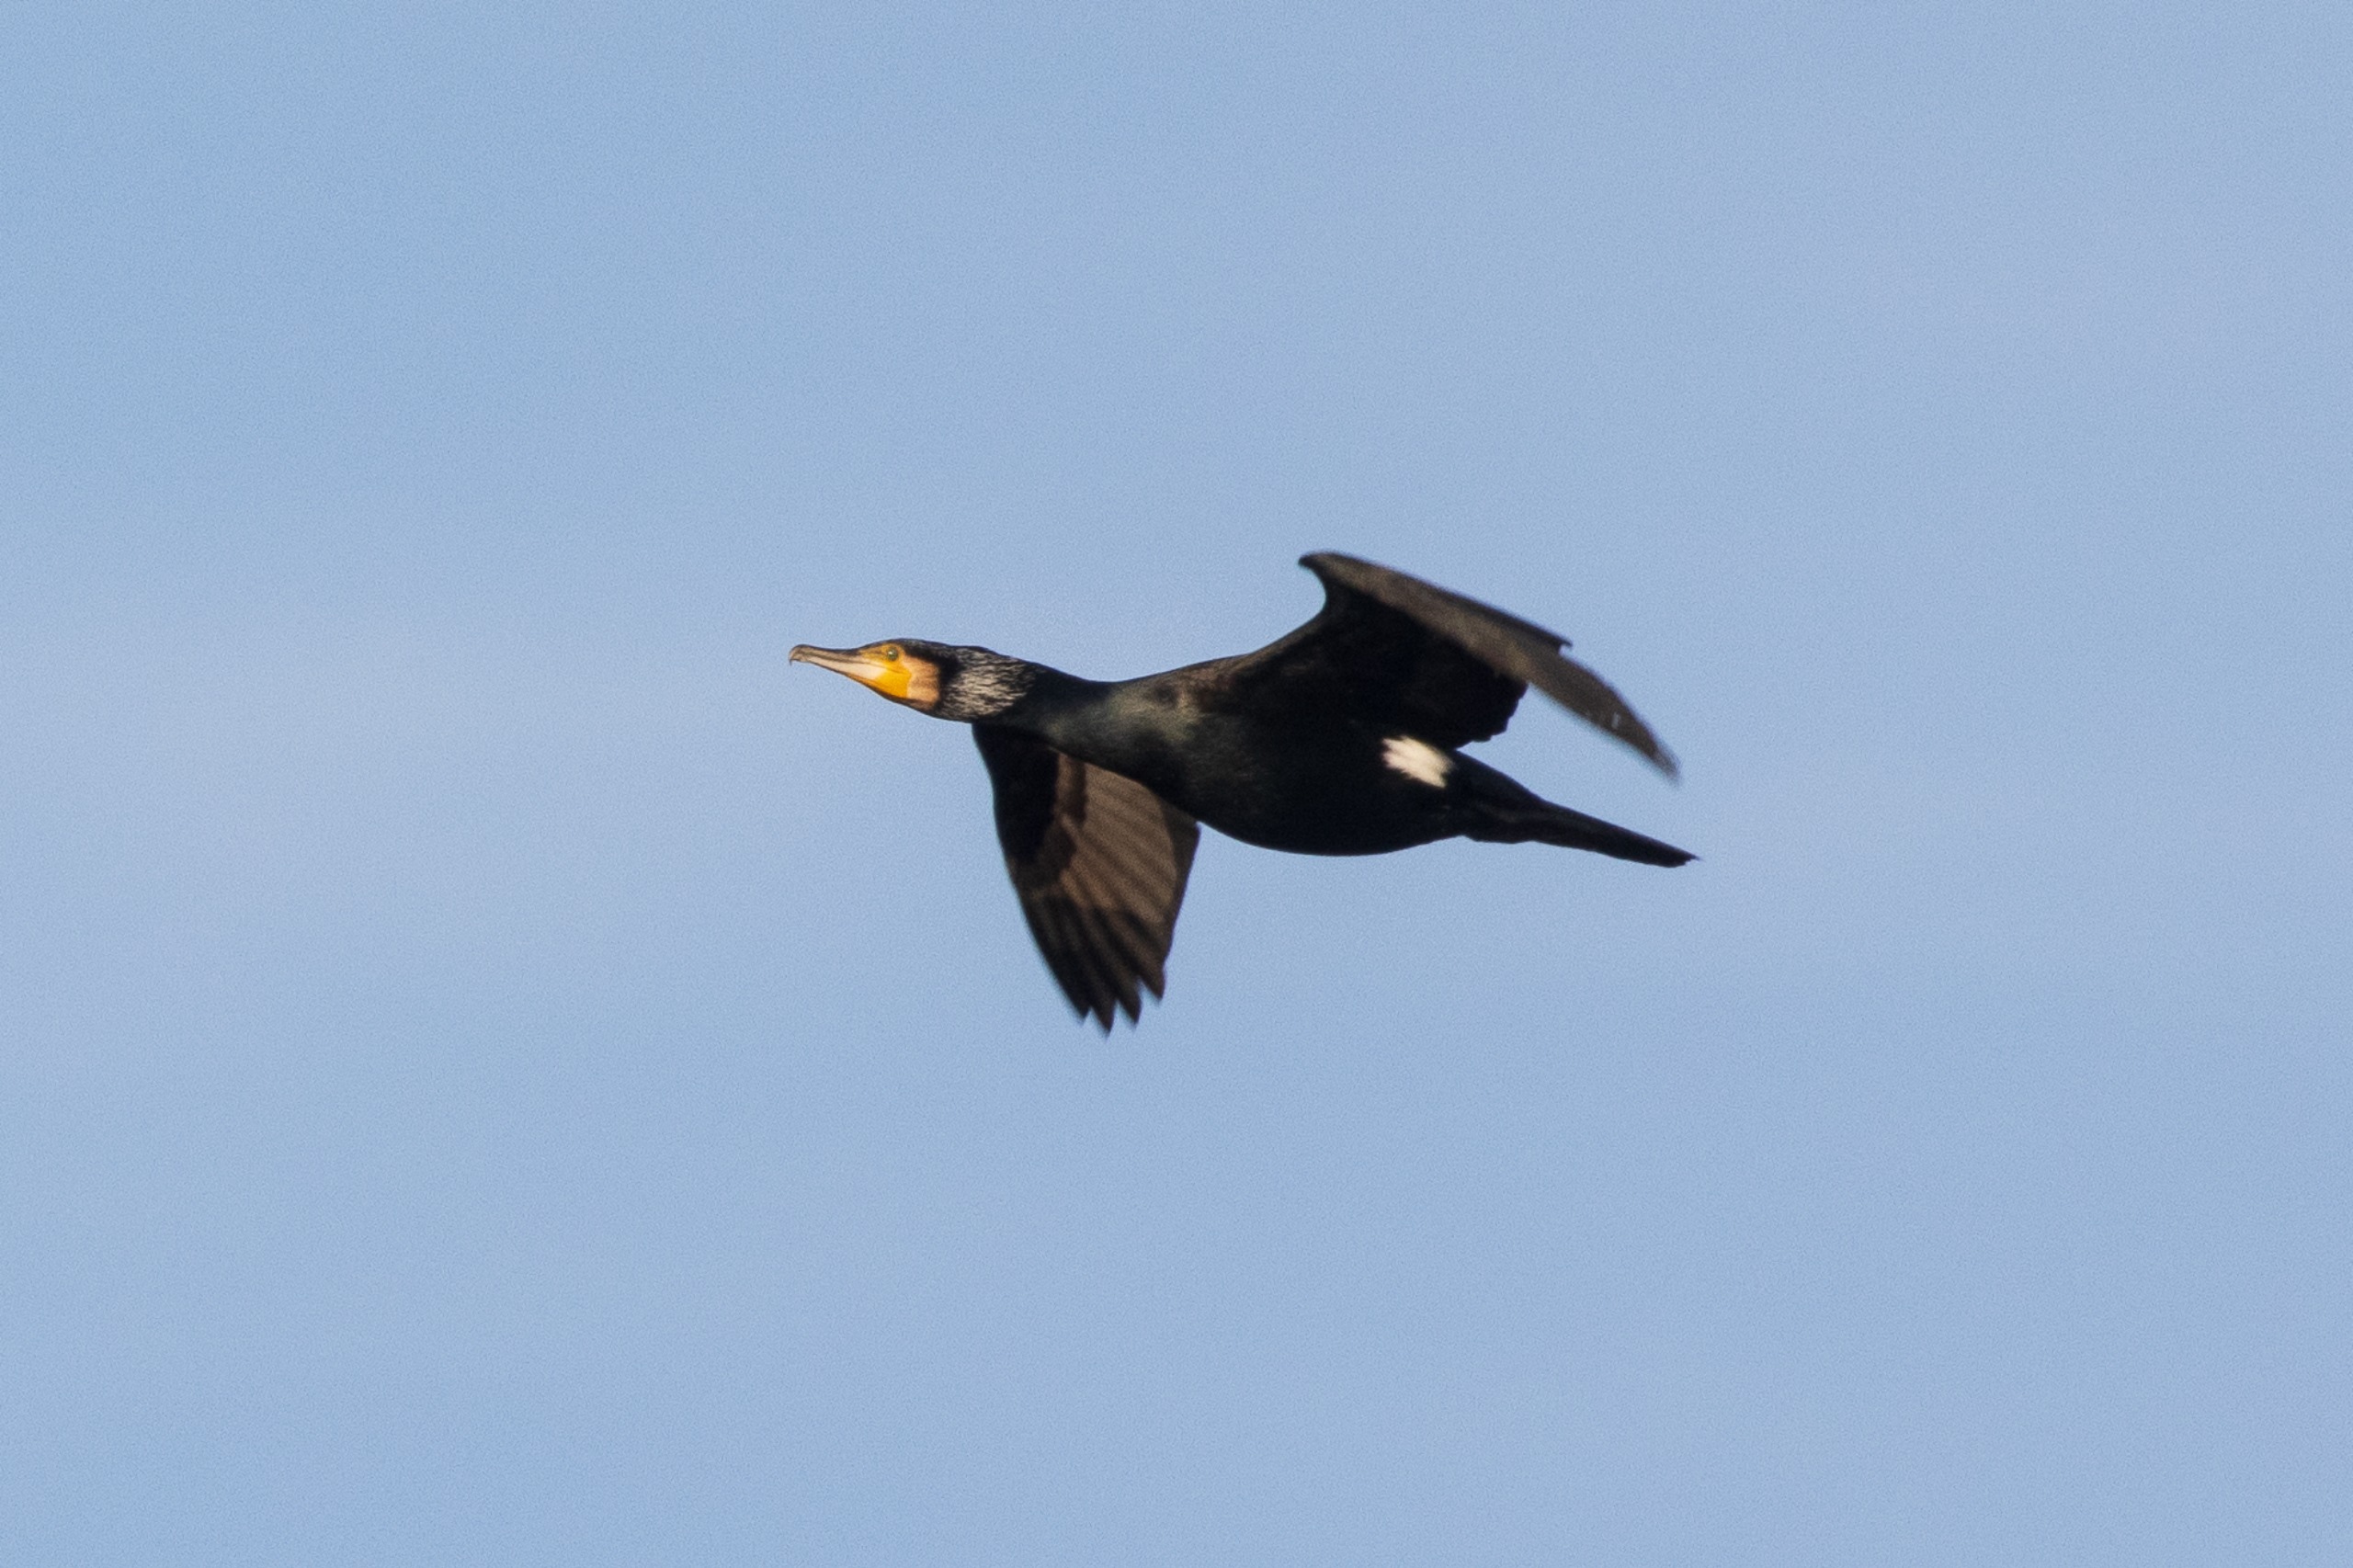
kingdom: Animalia
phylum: Chordata
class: Aves
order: Suliformes
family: Phalacrocoracidae
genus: Phalacrocorax
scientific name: Phalacrocorax carbo
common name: Skarv
